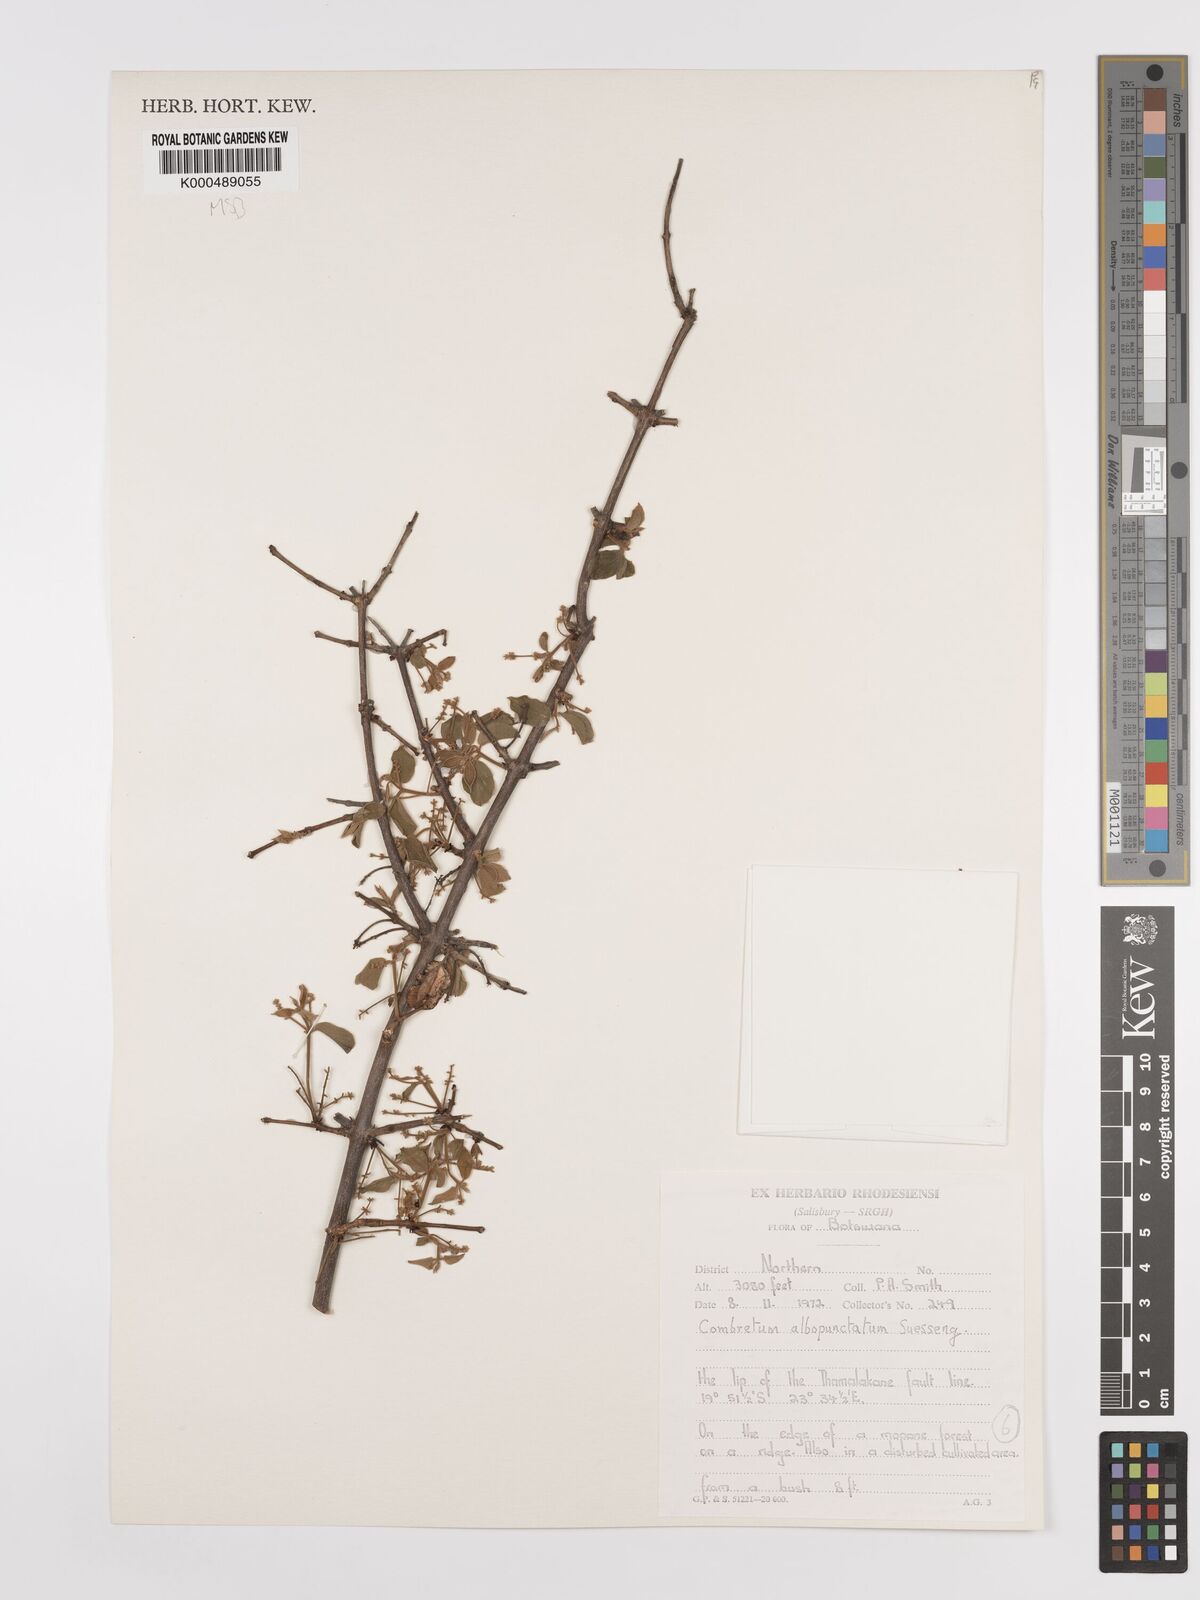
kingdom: Plantae
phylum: Tracheophyta
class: Magnoliopsida
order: Myrtales
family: Combretaceae
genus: Combretum
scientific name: Combretum albopunctatum
